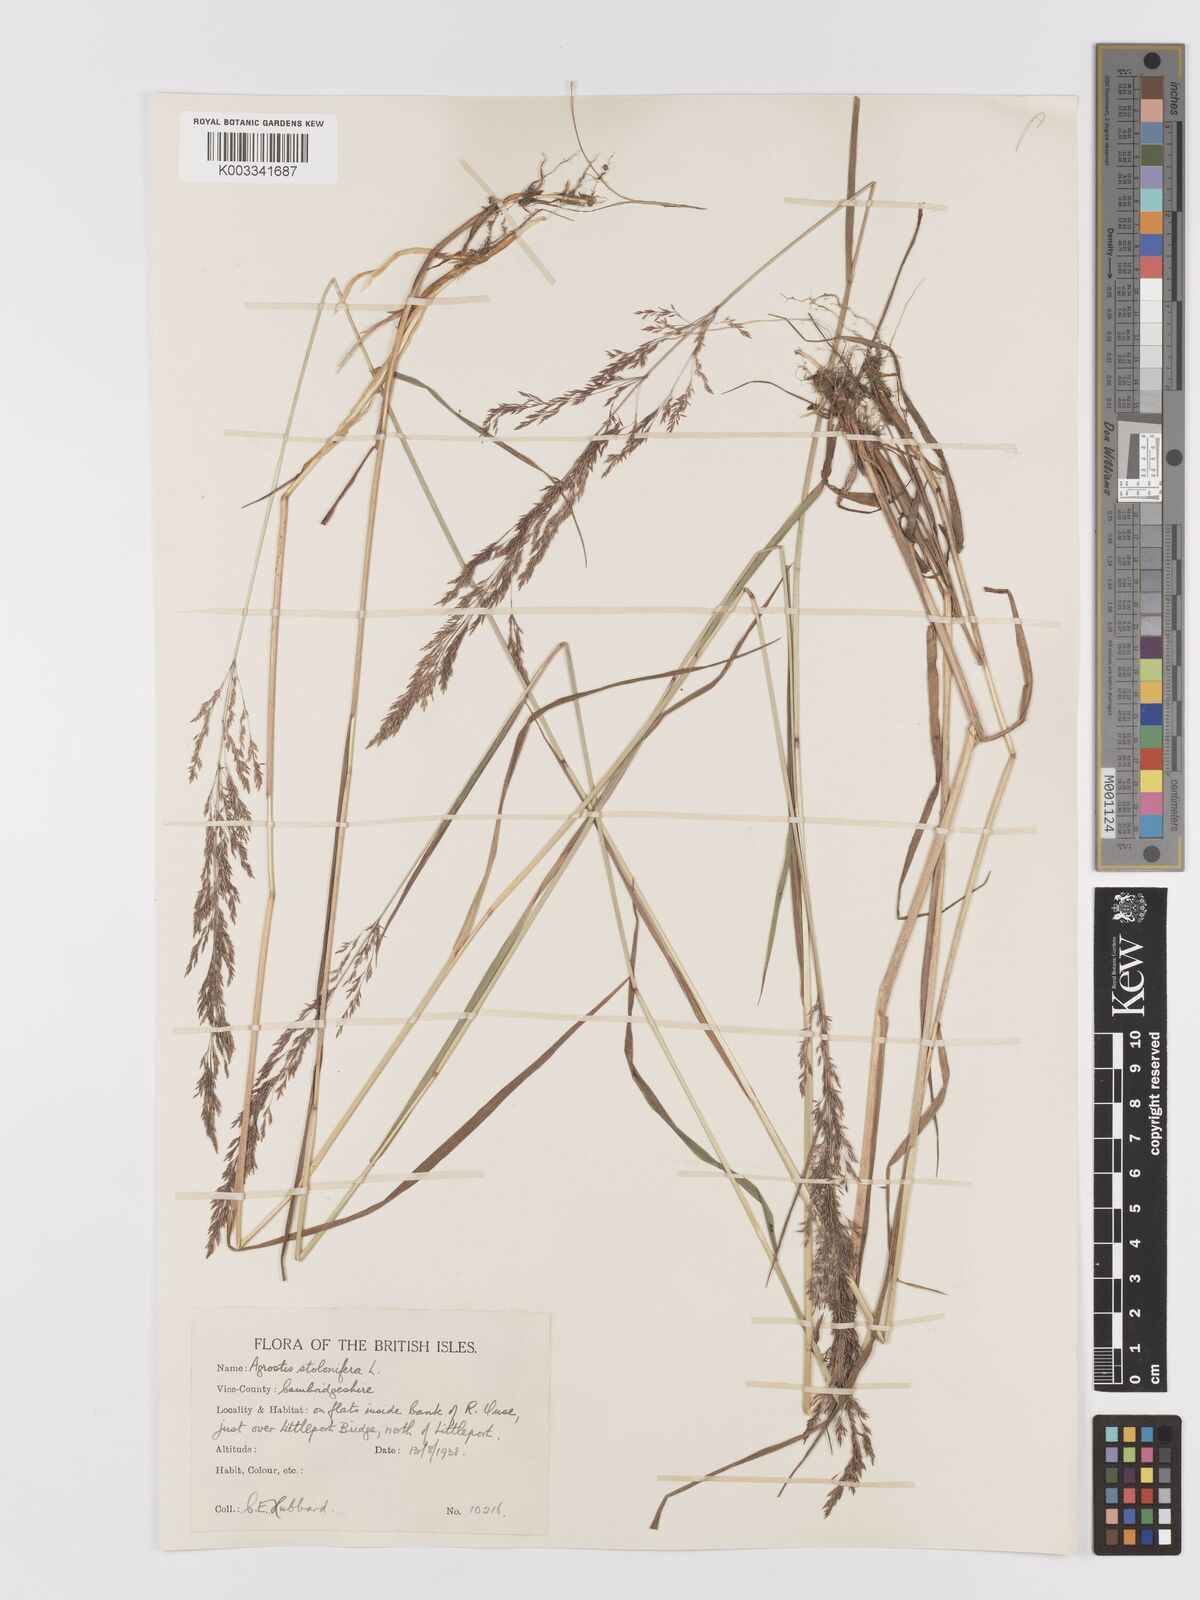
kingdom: Plantae
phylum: Tracheophyta
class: Liliopsida
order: Poales
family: Poaceae
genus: Agrostis
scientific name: Agrostis stolonifera
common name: Creeping bentgrass
